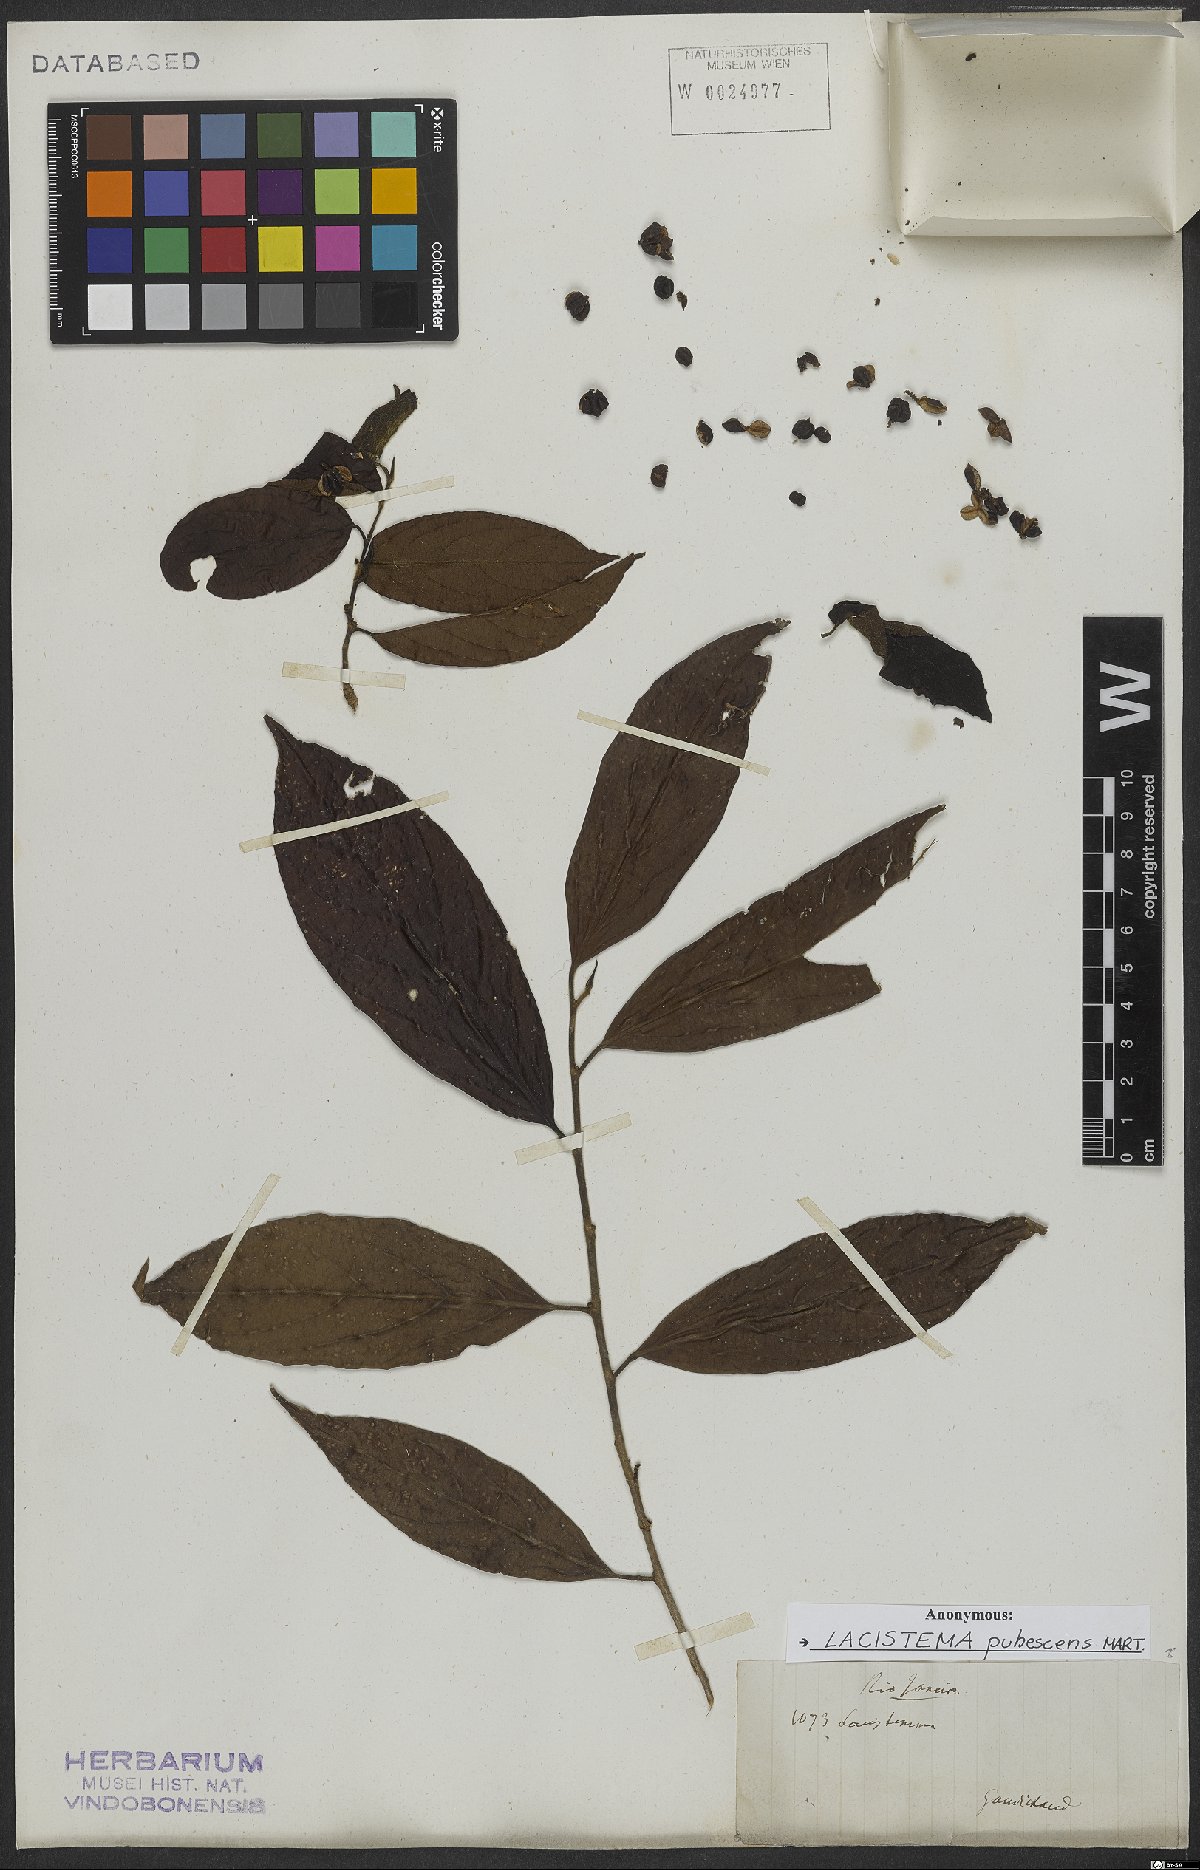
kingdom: Plantae
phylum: Tracheophyta
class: Magnoliopsida
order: Malpighiales
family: Lacistemataceae
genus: Lacistema
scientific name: Lacistema pubescens
